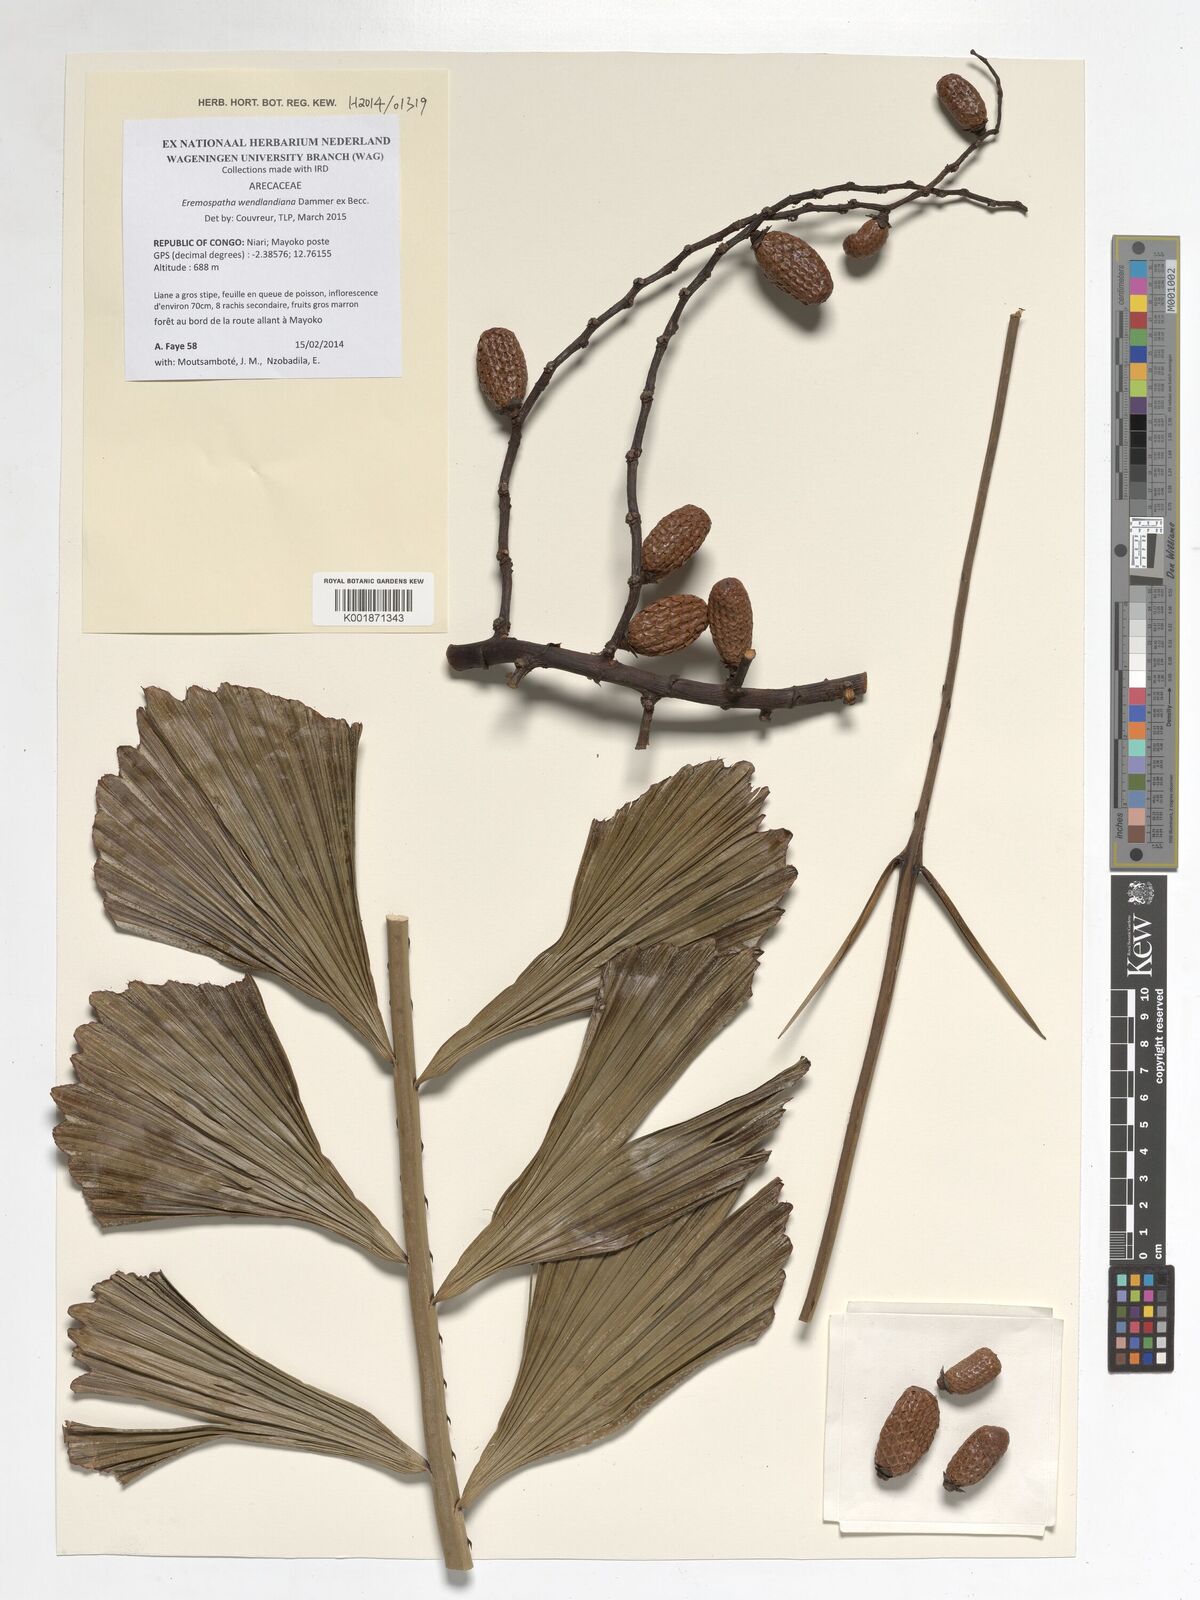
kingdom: Plantae
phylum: Tracheophyta
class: Liliopsida
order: Arecales
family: Arecaceae
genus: Eremospatha
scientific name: Eremospatha wendlandiana
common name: Rattan
